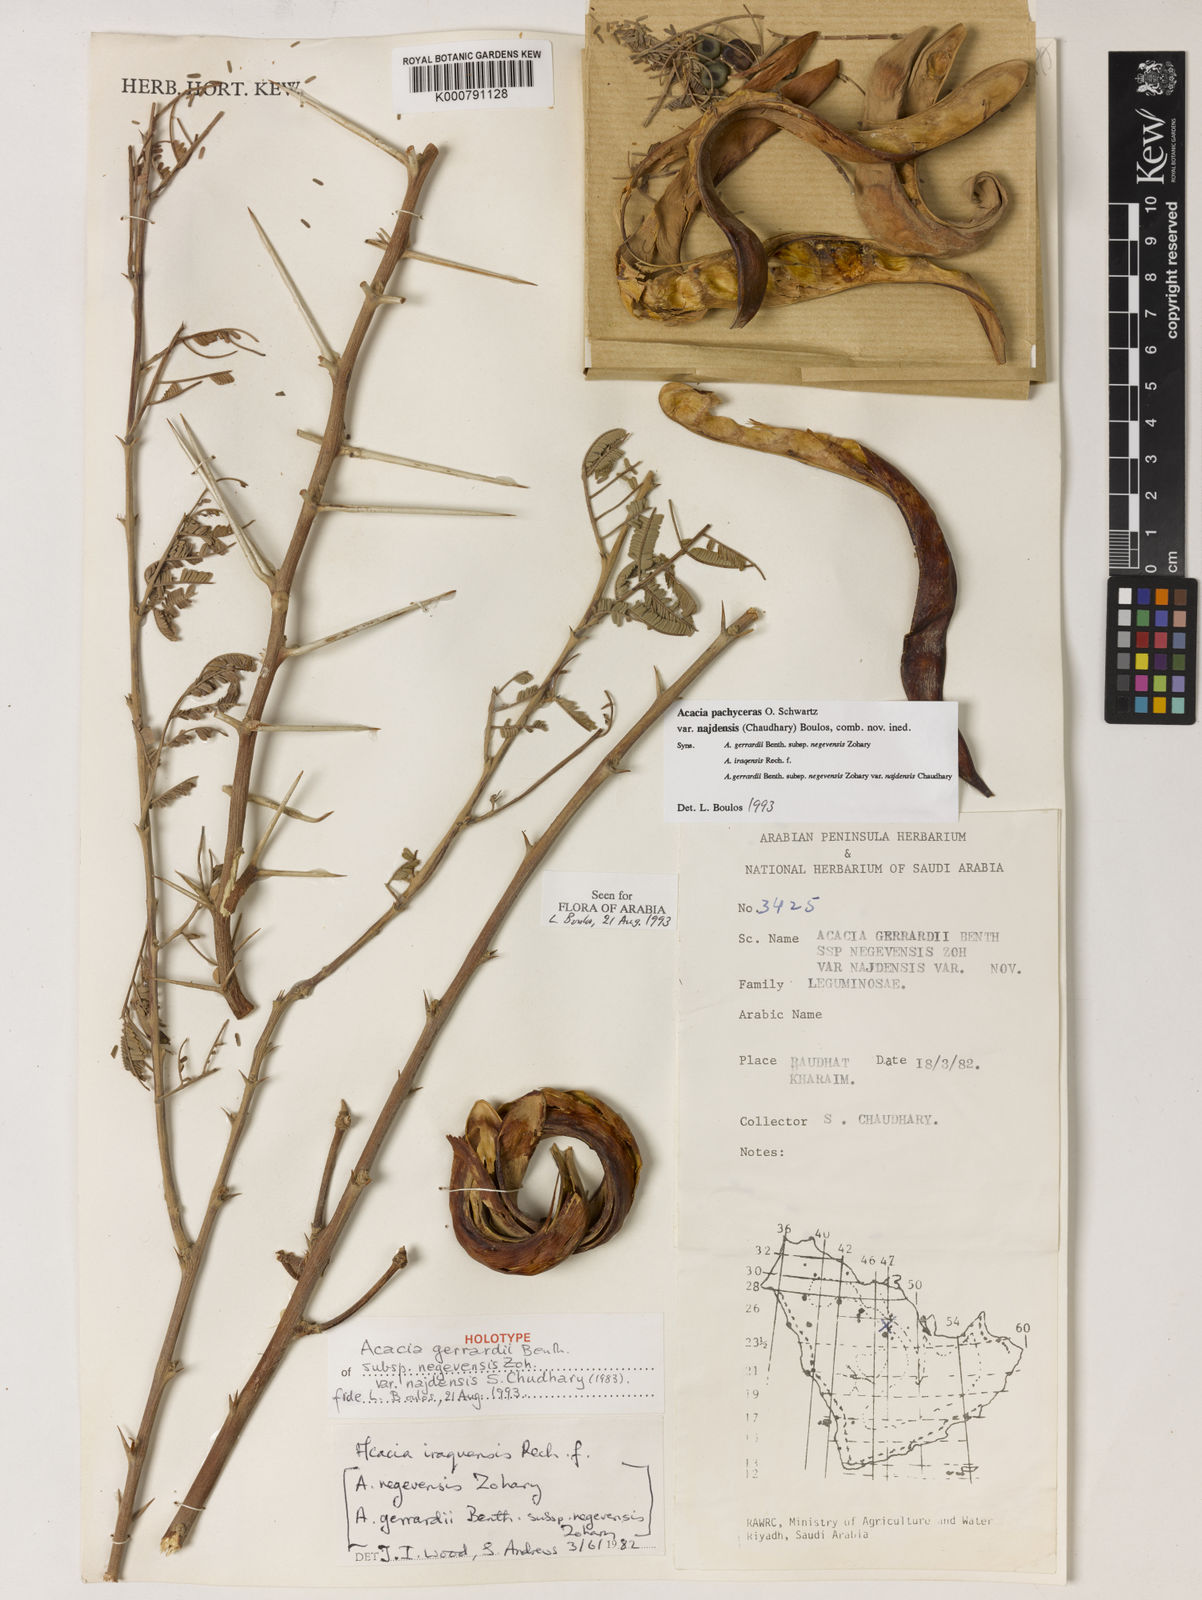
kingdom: Plantae
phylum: Tracheophyta
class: Magnoliopsida
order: Fabales
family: Fabaceae
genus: Vachellia
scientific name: Vachellia gerrardii
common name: Redthorn
